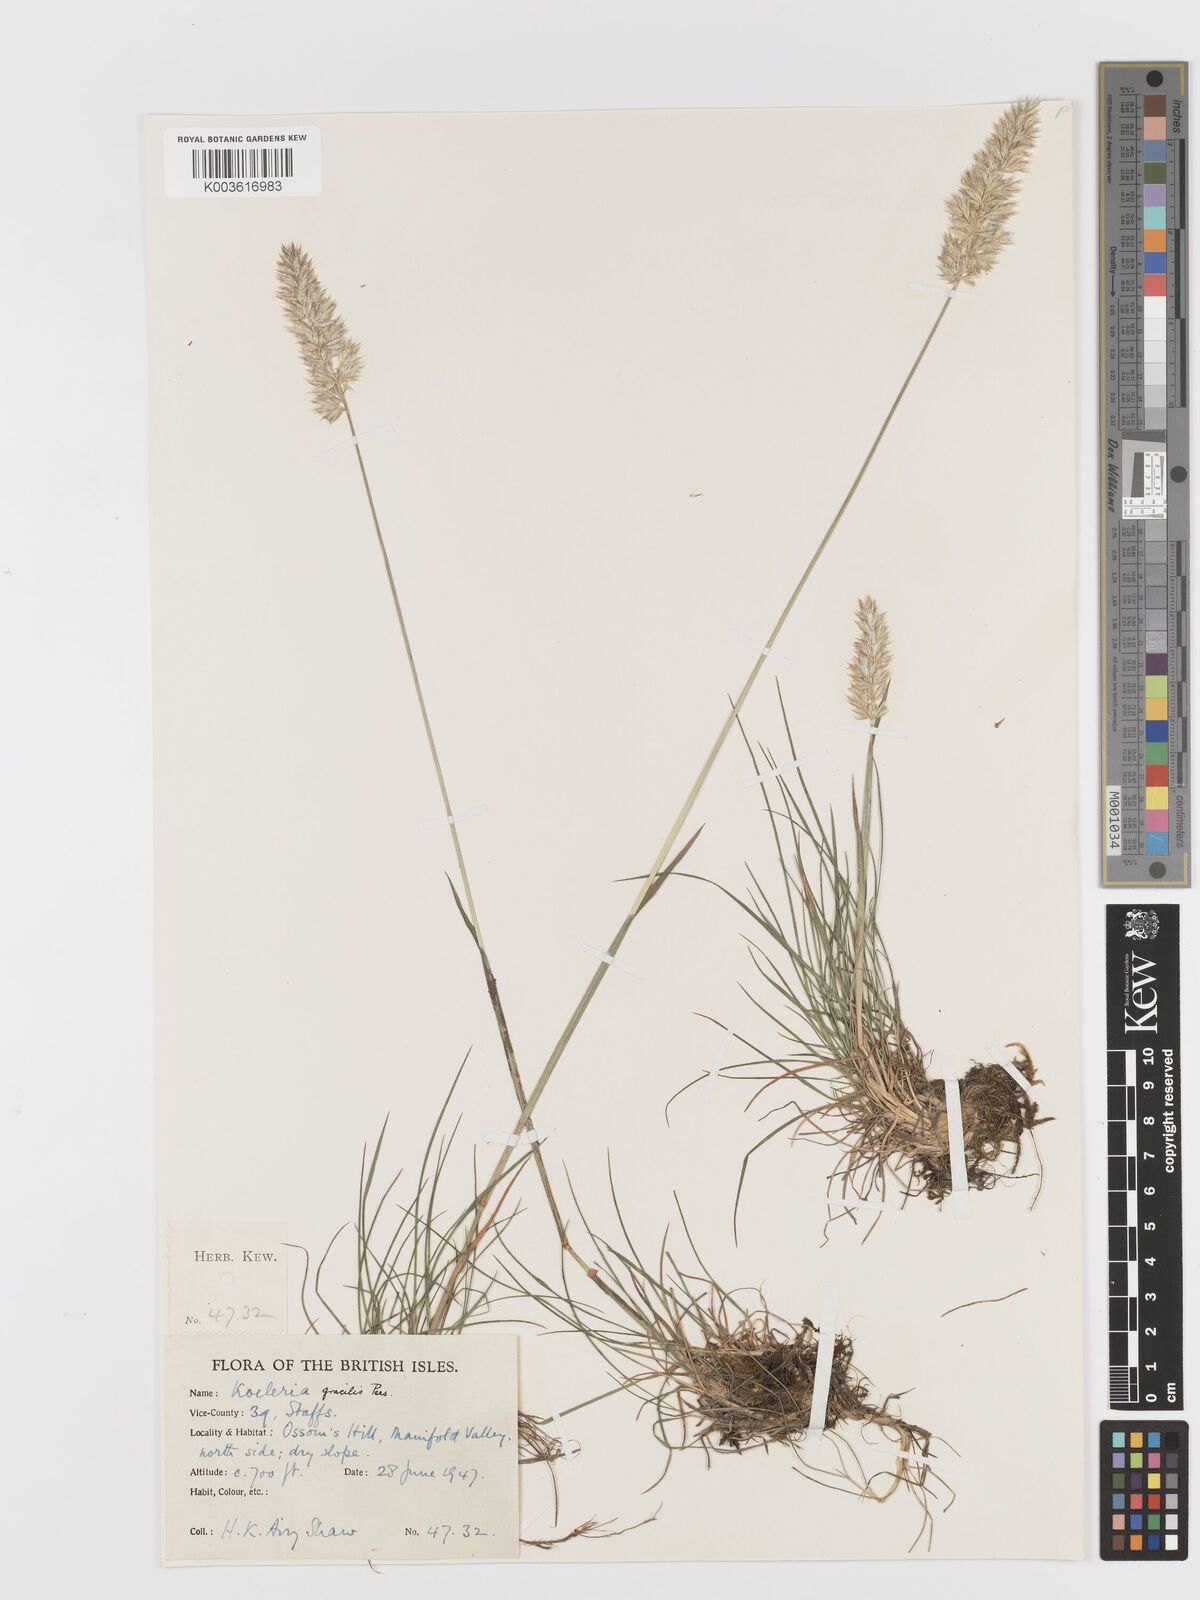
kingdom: Plantae
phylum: Tracheophyta
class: Liliopsida
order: Poales
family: Poaceae
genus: Koeleria
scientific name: Koeleria macrantha
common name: Crested hair-grass
